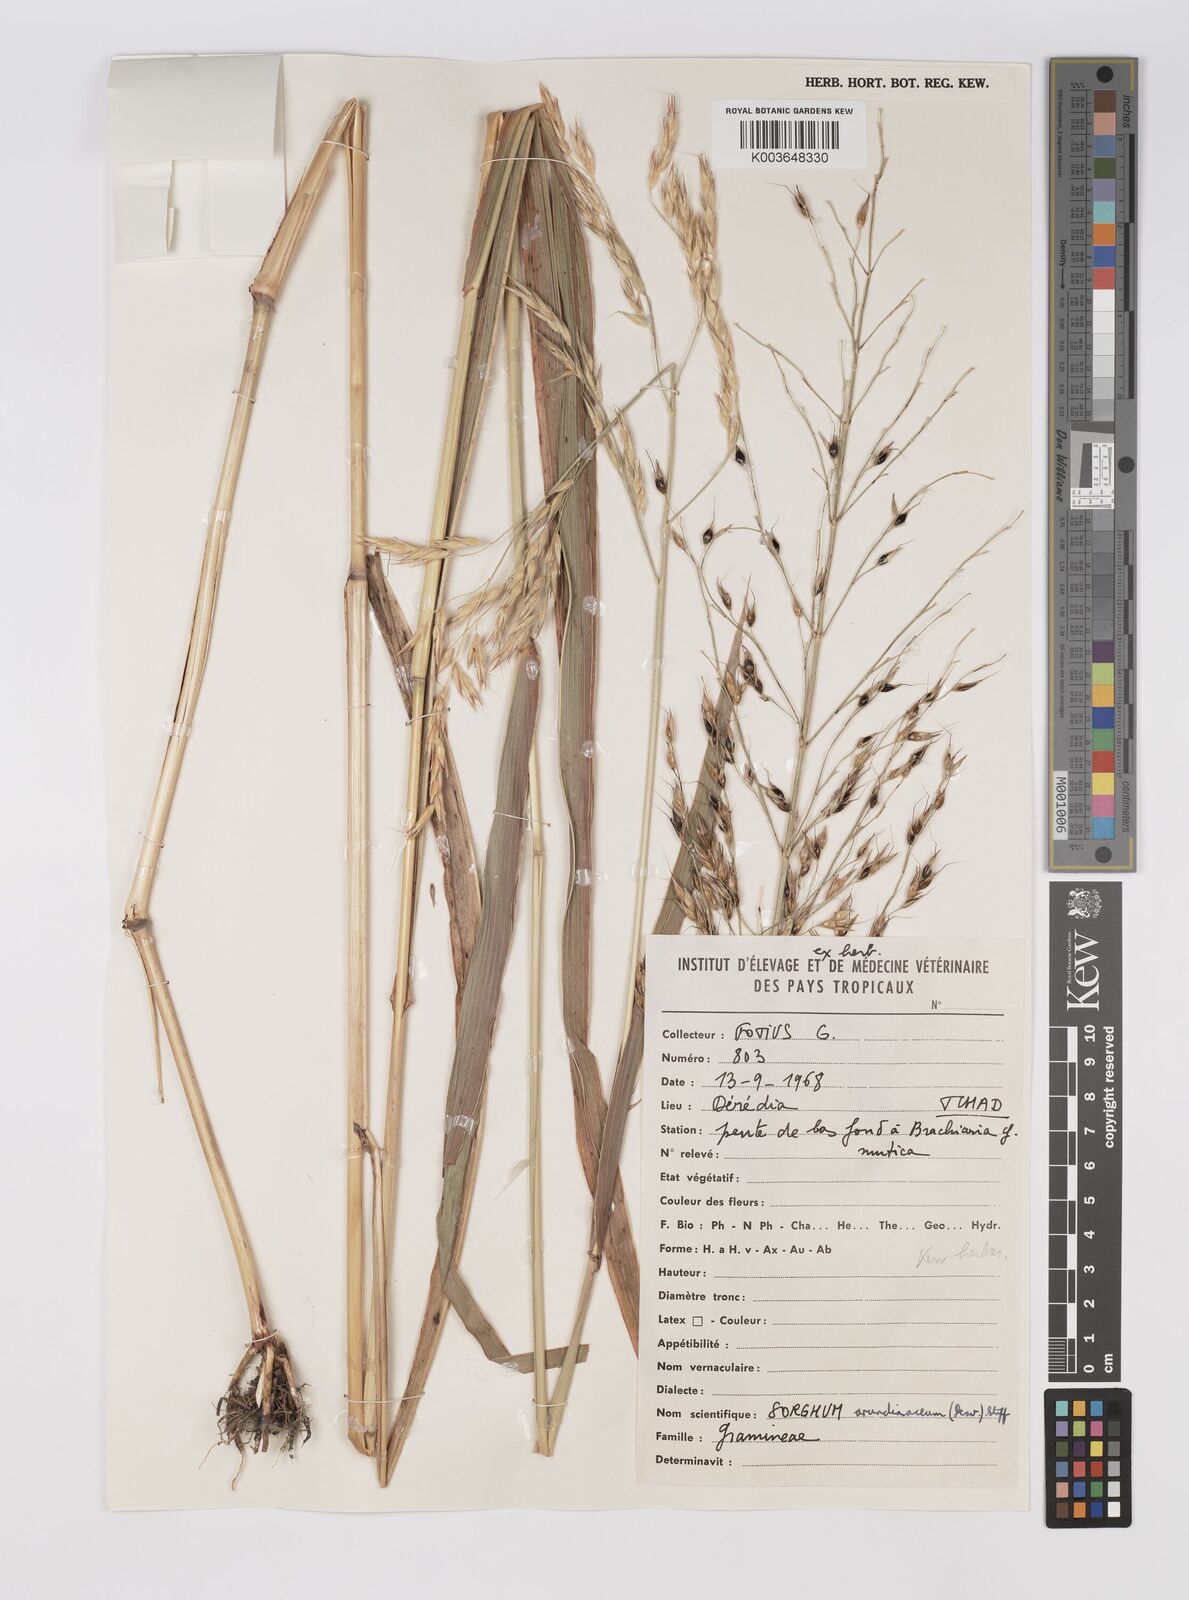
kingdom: Plantae
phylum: Tracheophyta
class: Liliopsida
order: Poales
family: Poaceae
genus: Sorghum
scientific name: Sorghum arundinaceum
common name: Sorghum
